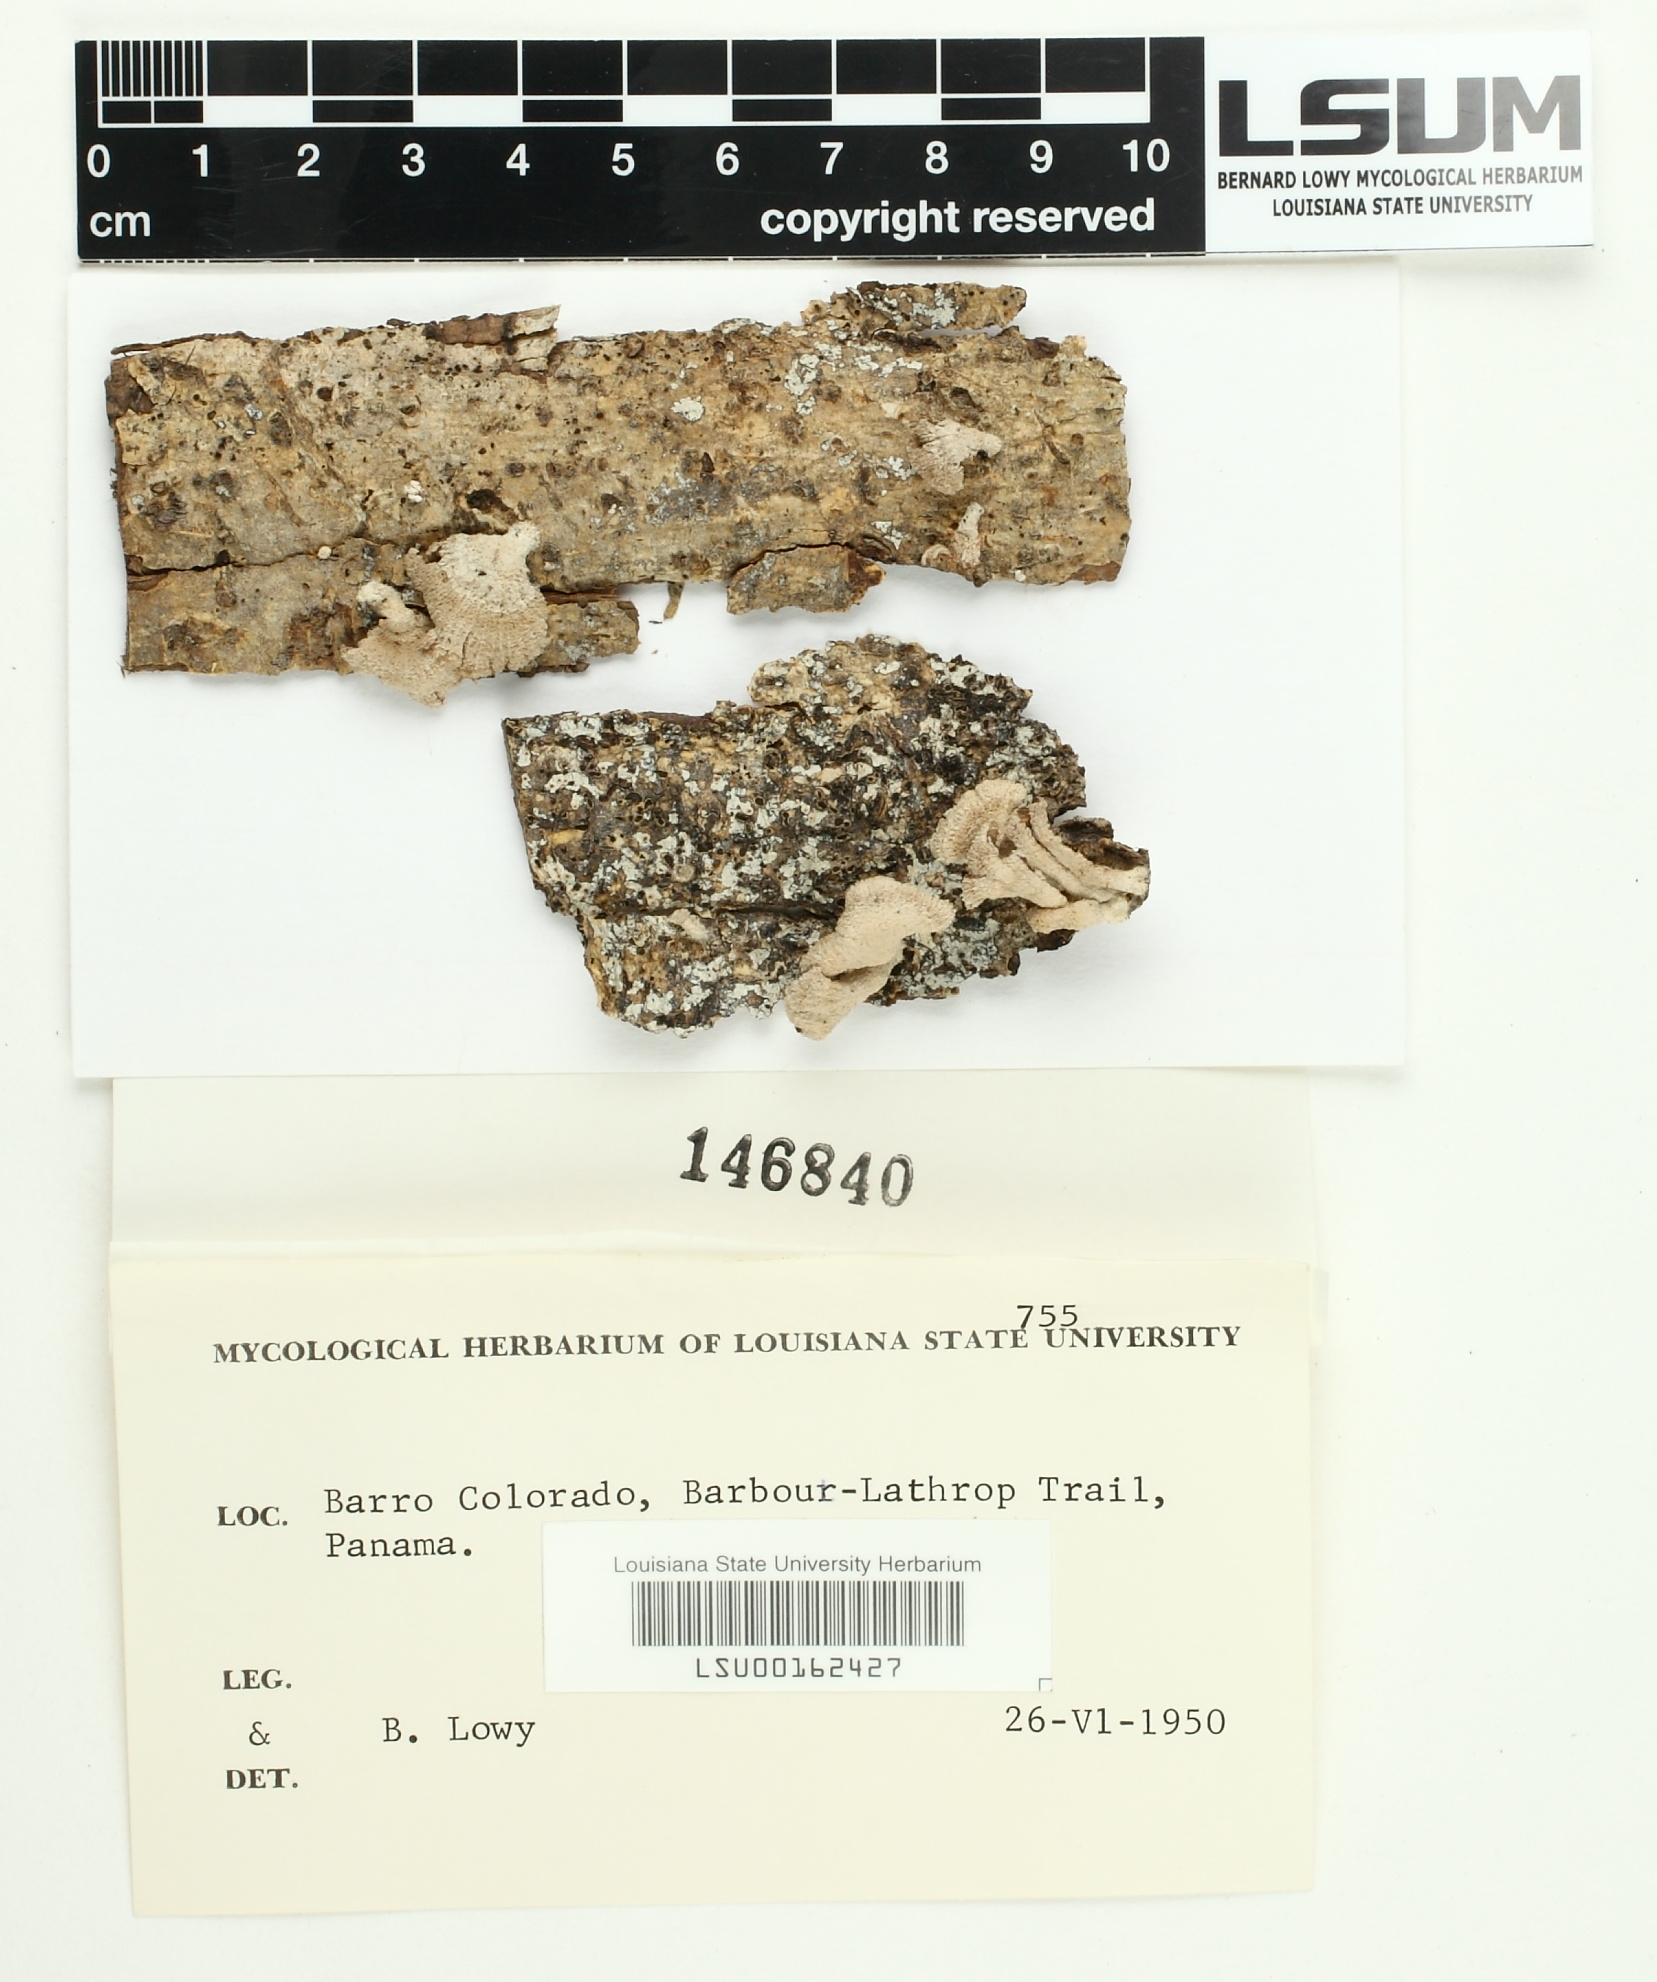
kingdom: Fungi
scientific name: Fungi
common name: Fungi
